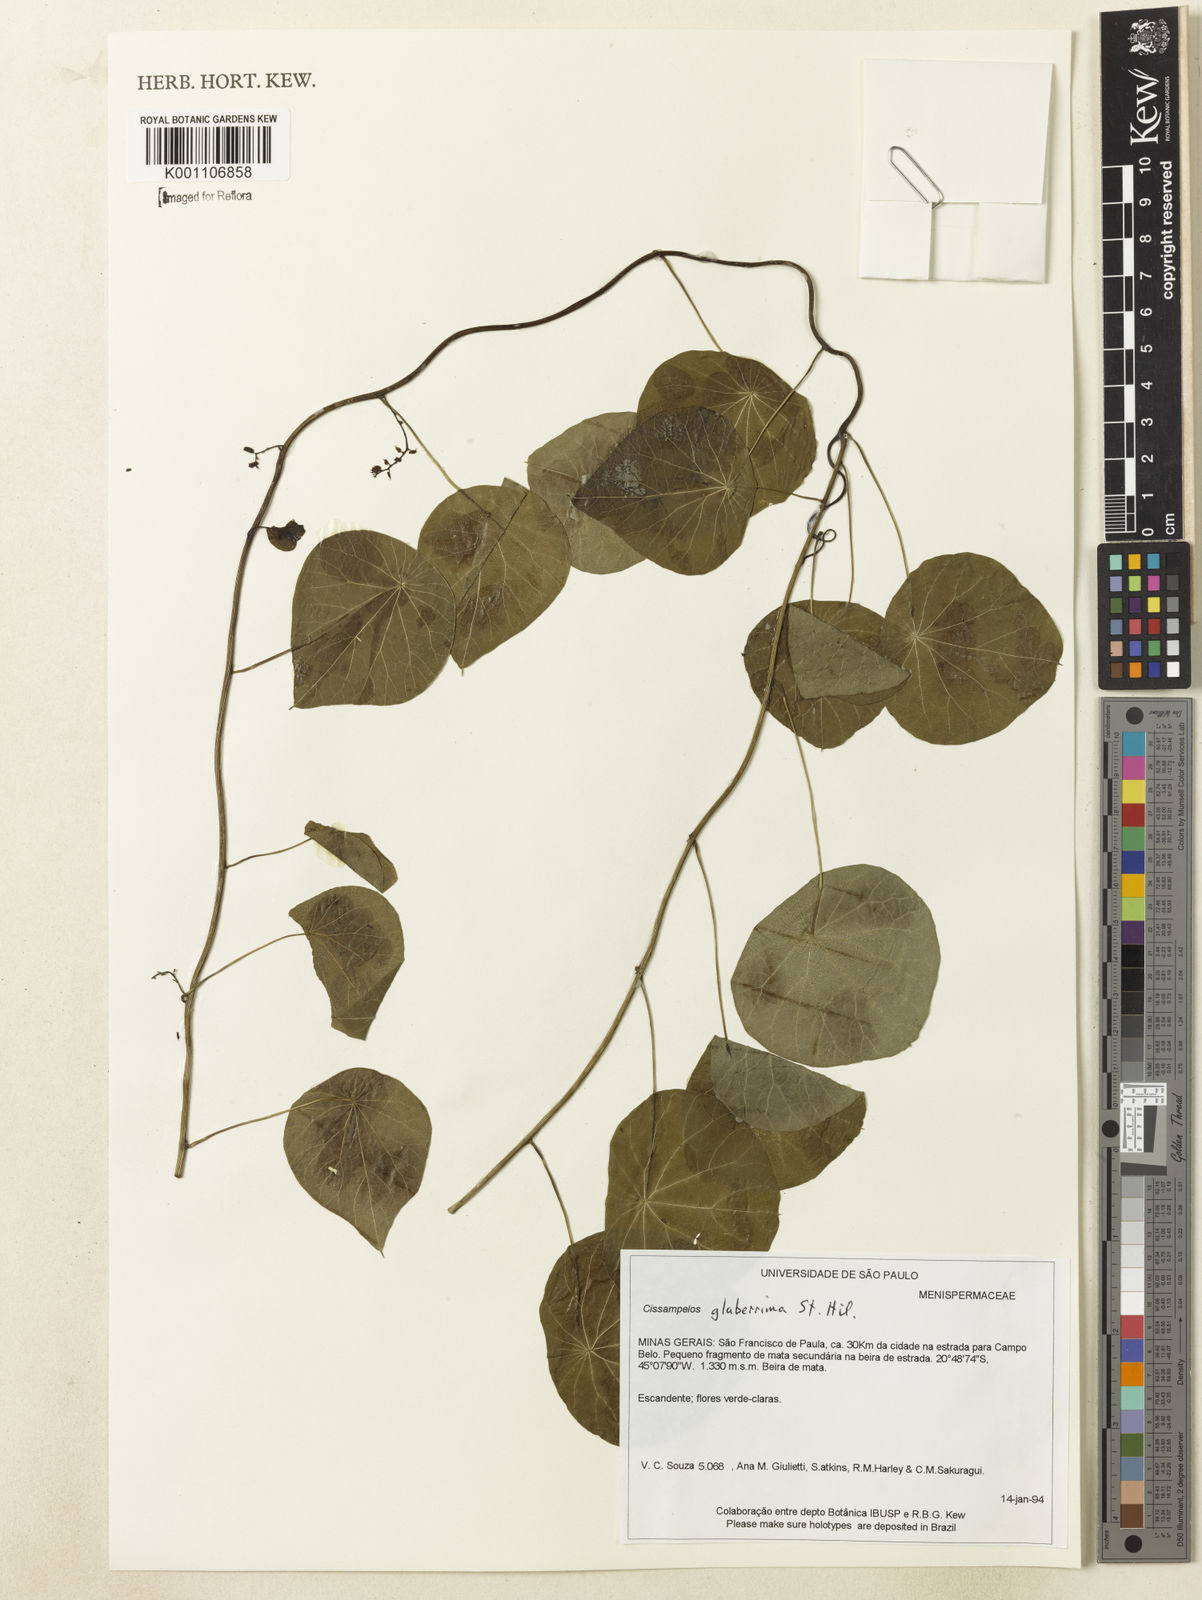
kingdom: Plantae
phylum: Tracheophyta
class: Magnoliopsida
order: Ranunculales
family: Menispermaceae
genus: Cissampelos
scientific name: Cissampelos glaberrima
